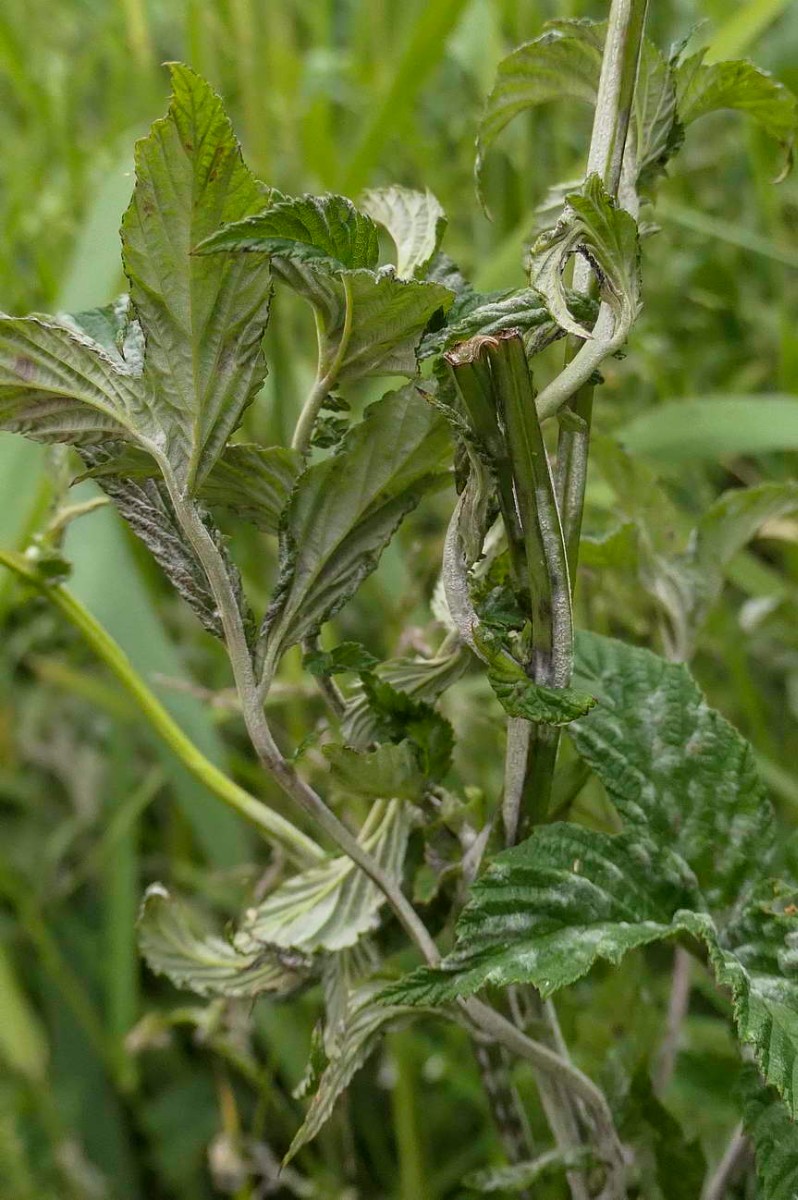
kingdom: Fungi
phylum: Ascomycota
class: Leotiomycetes
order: Helotiales
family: Erysiphaceae
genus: Podosphaera
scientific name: Podosphaera filipendulae
